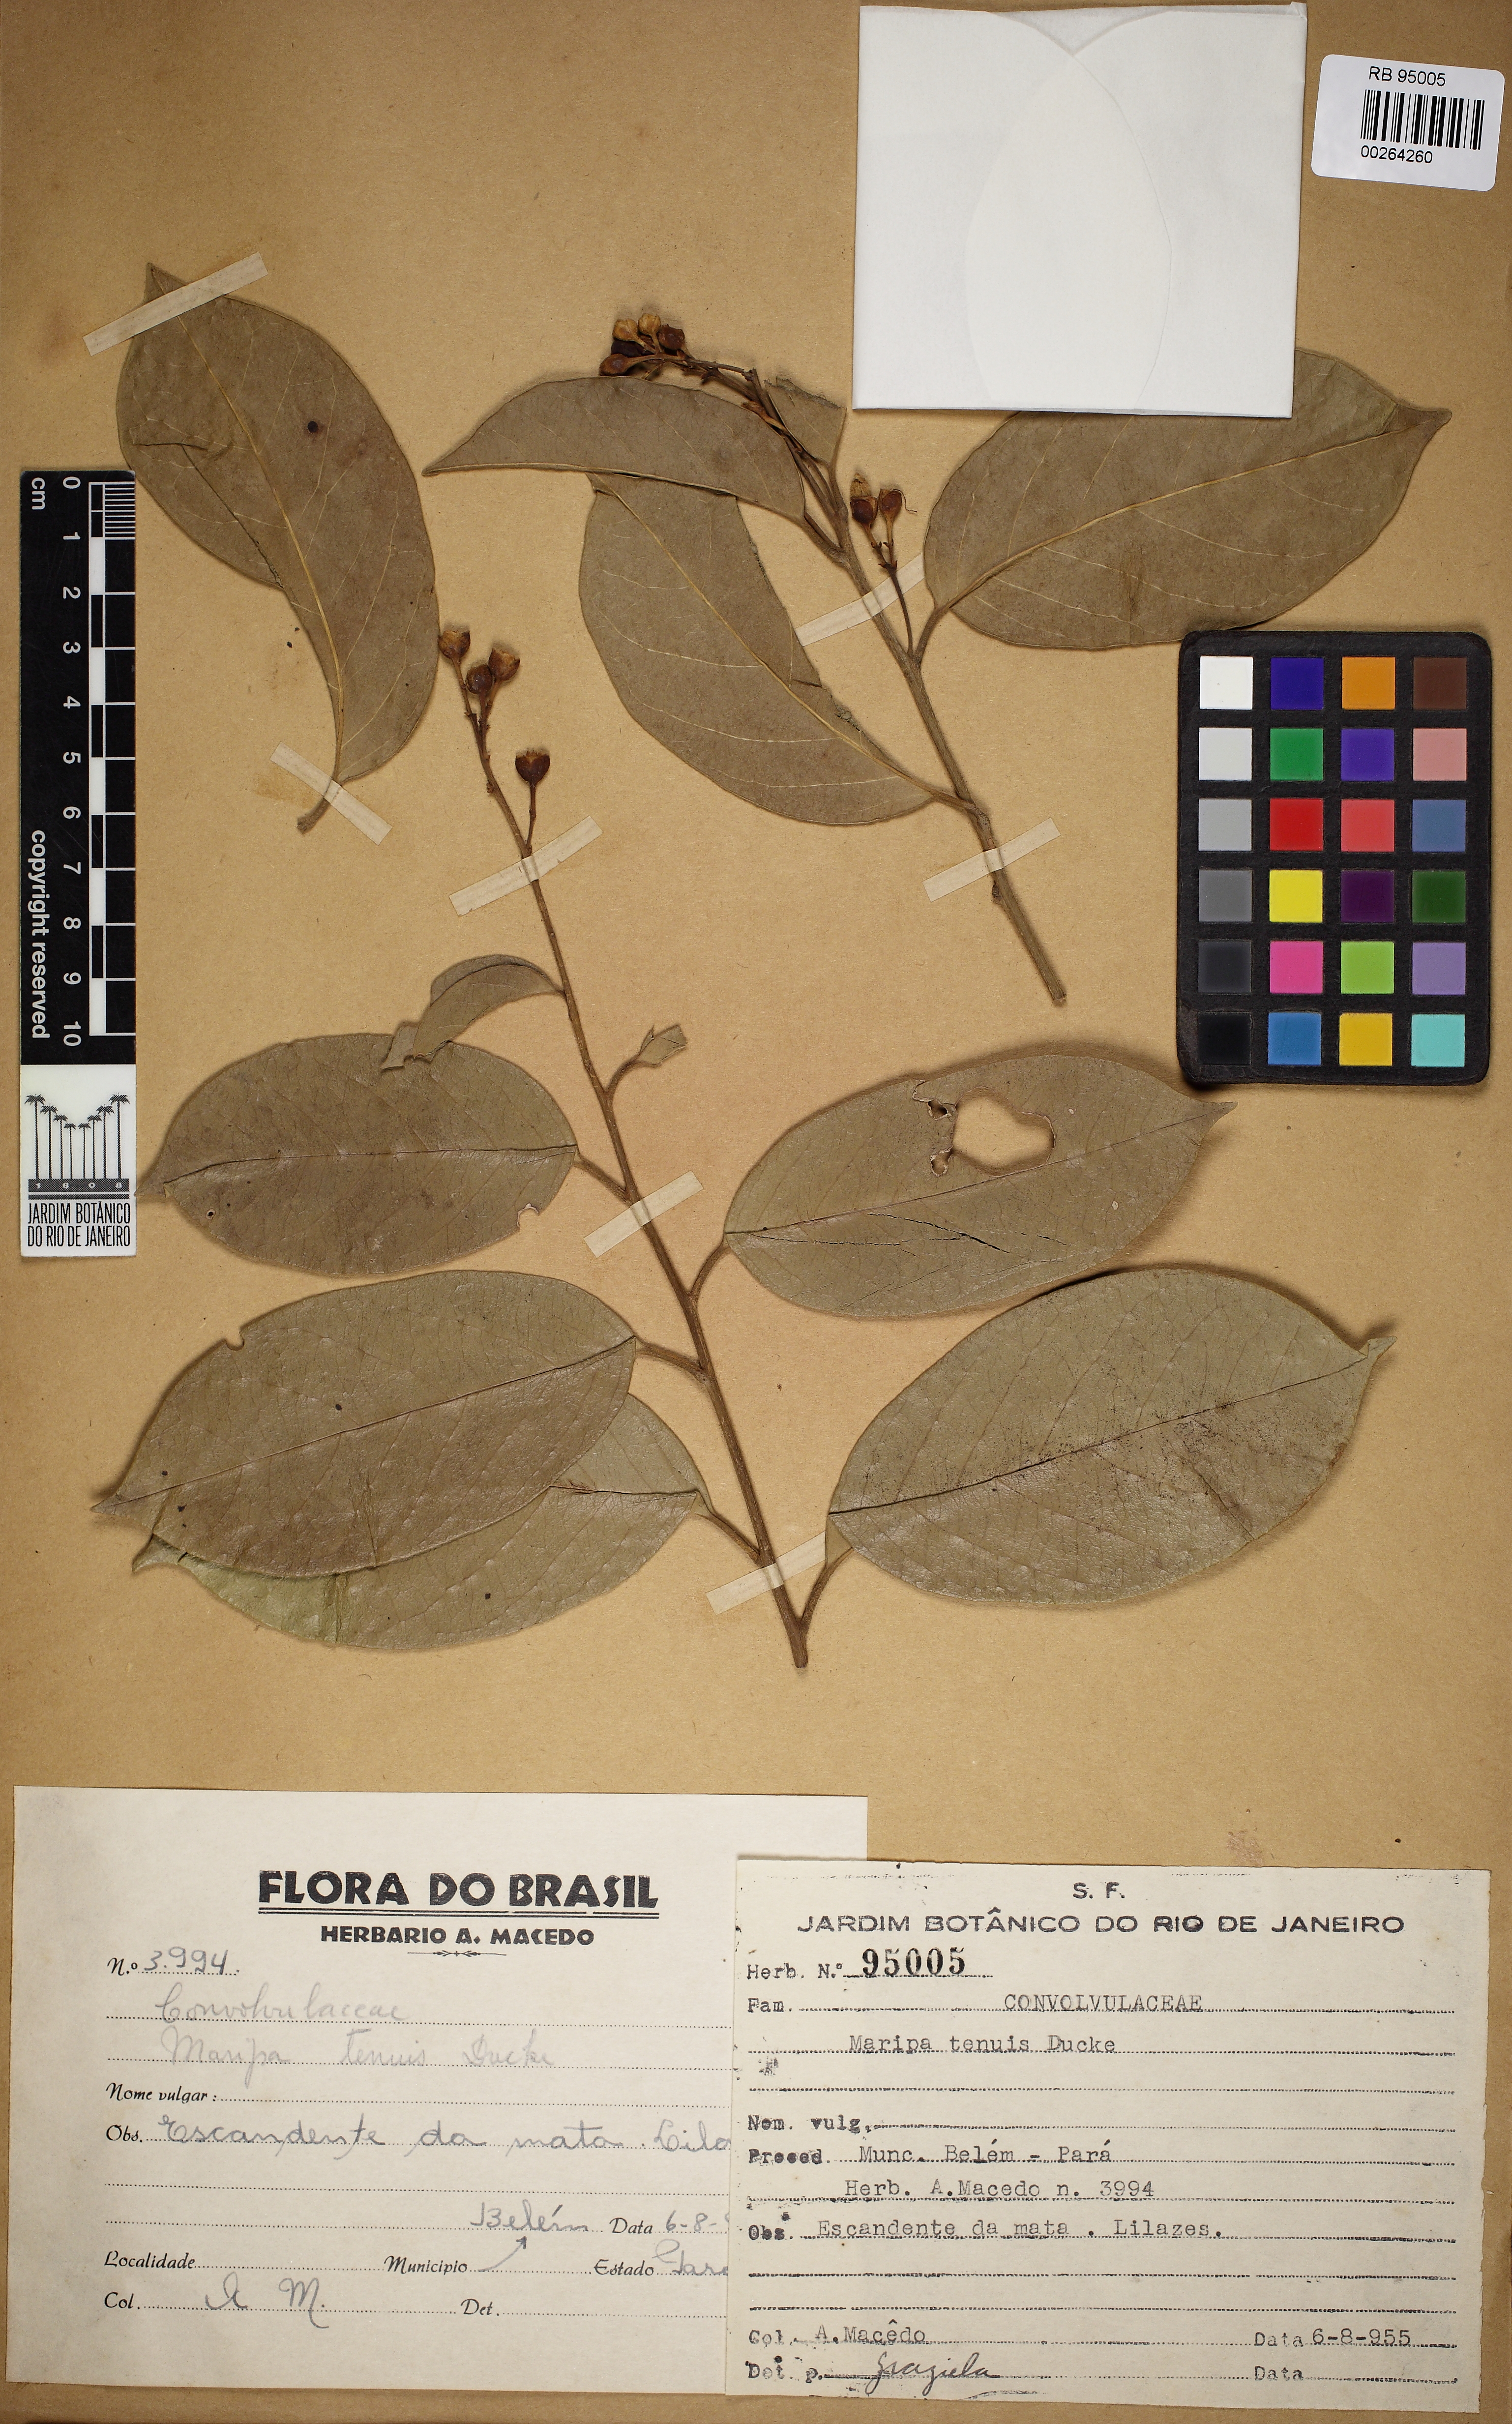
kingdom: Plantae
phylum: Tracheophyta
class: Magnoliopsida
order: Solanales
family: Convolvulaceae
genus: Maripa
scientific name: Maripa glabra
